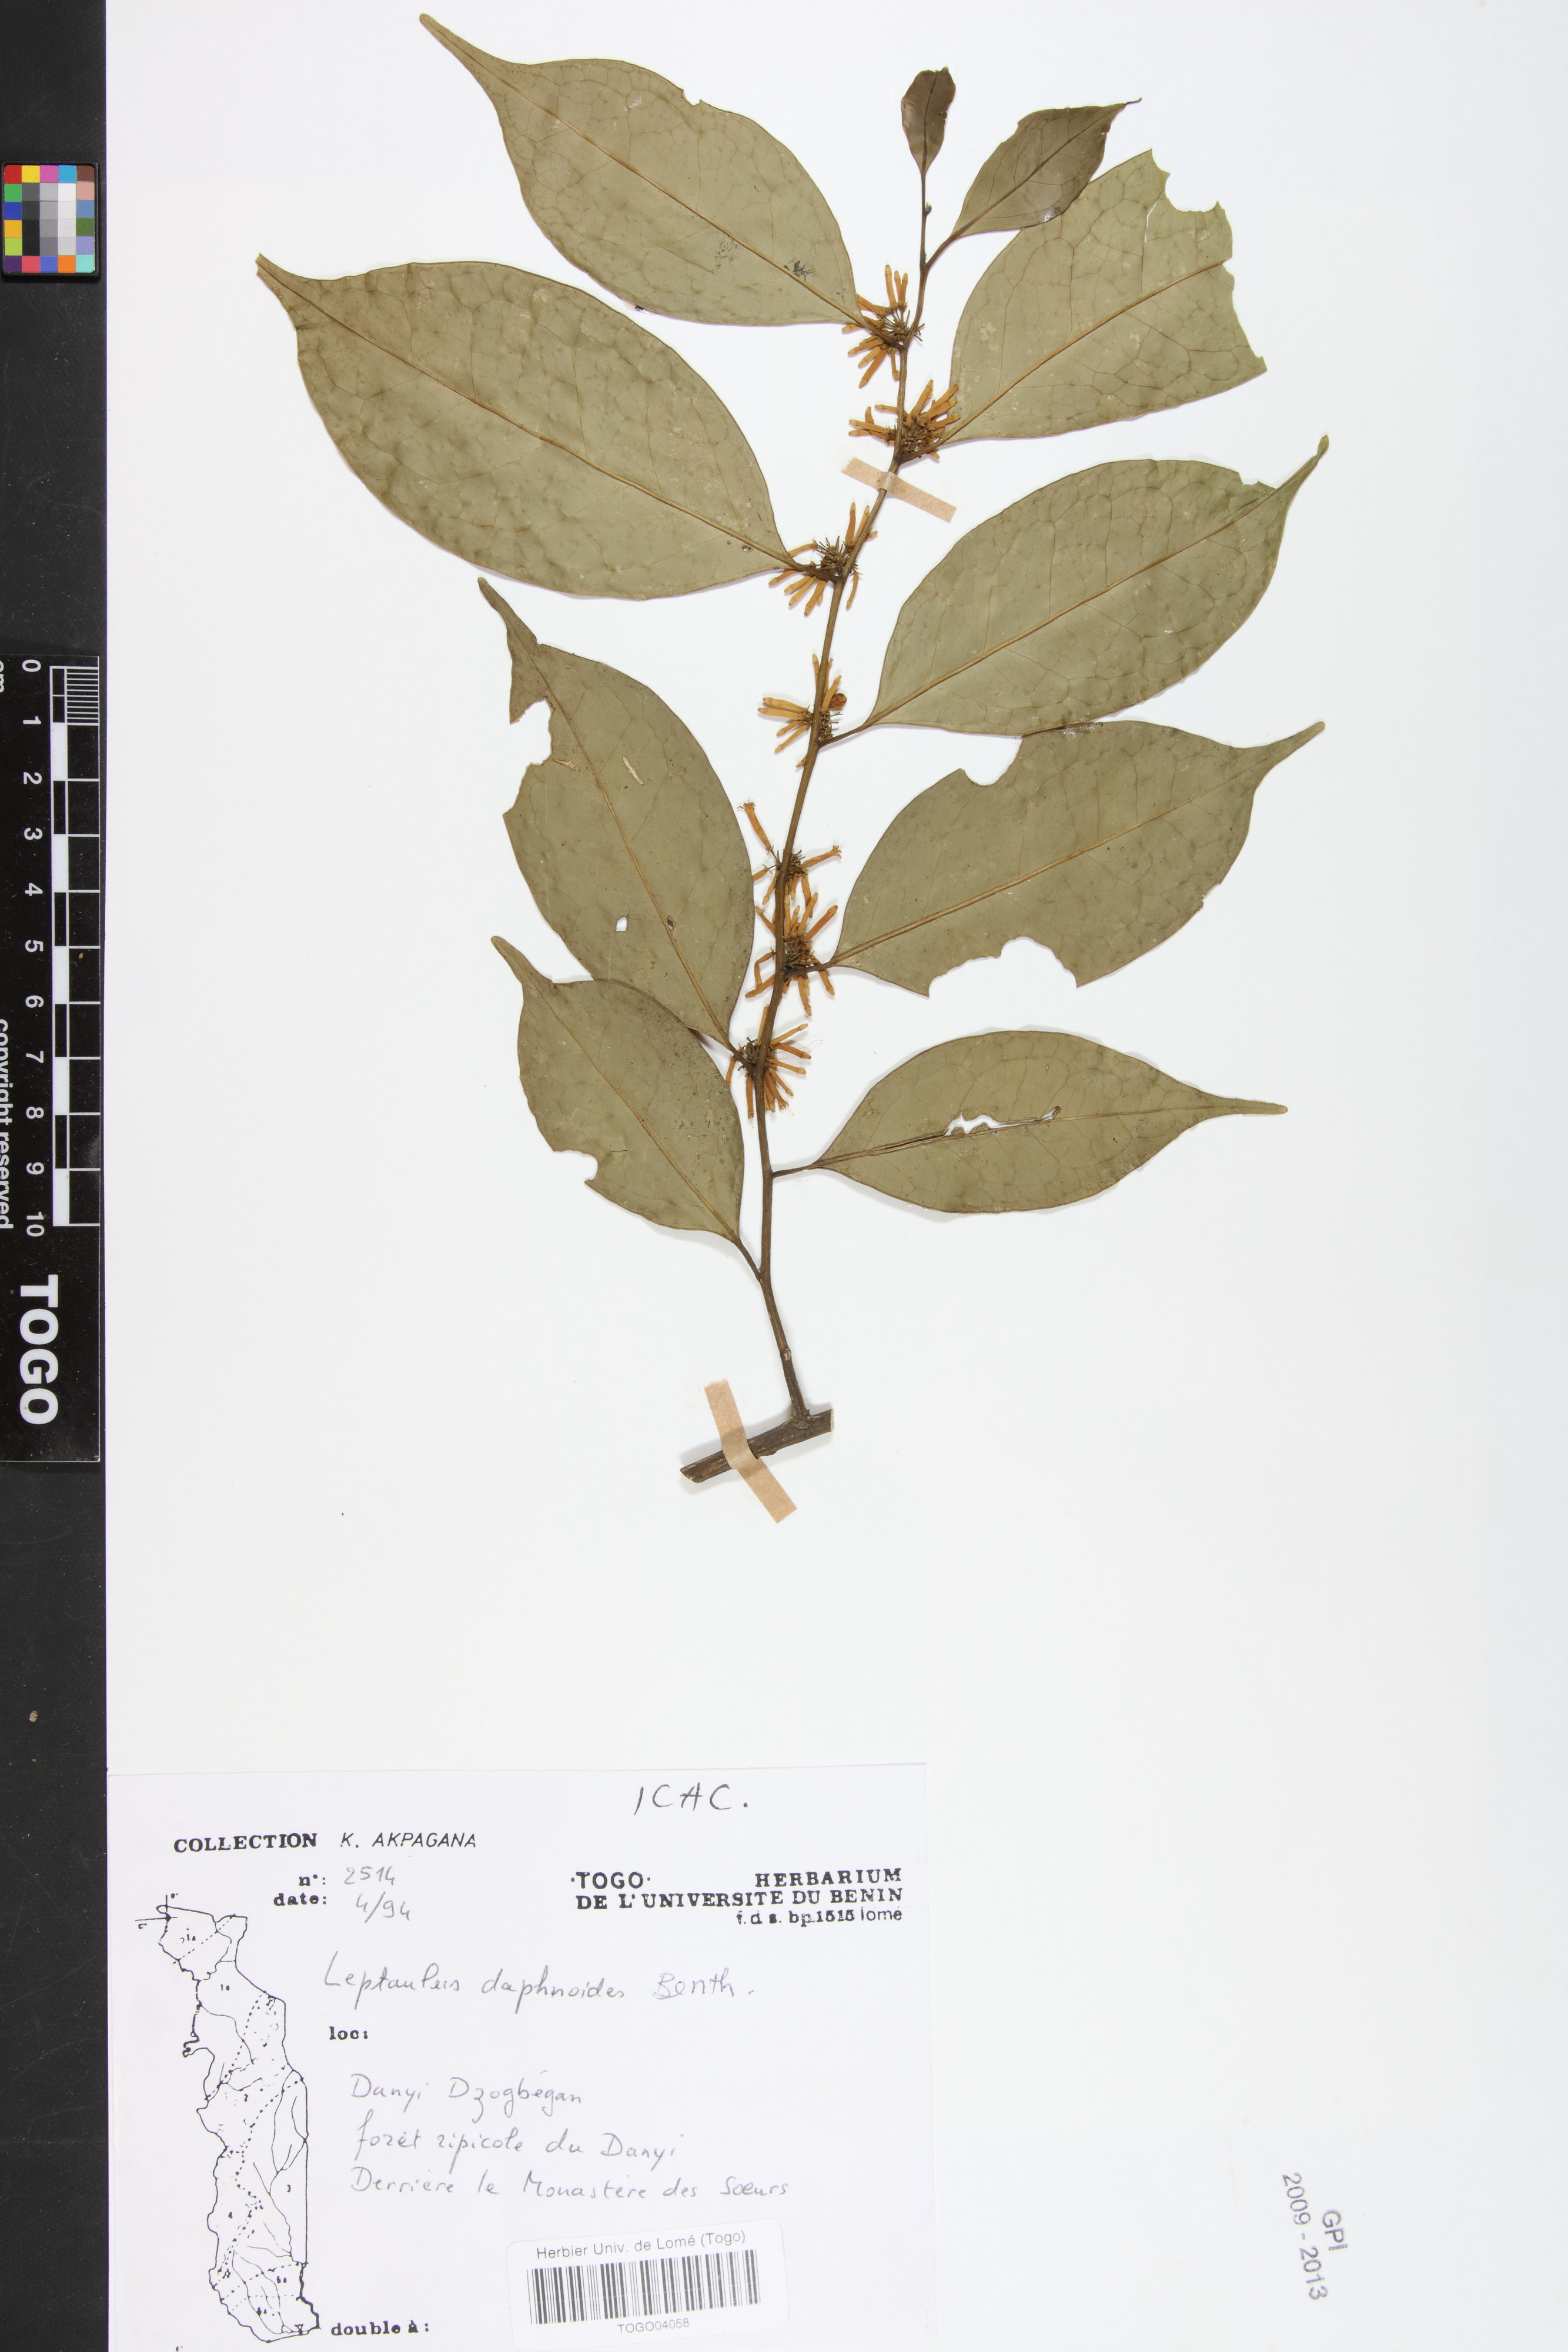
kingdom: Plantae
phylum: Tracheophyta
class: Magnoliopsida
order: Cardiopteridales
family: Cardiopteridaceae
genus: Leptaulus
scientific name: Leptaulus daphnoides
